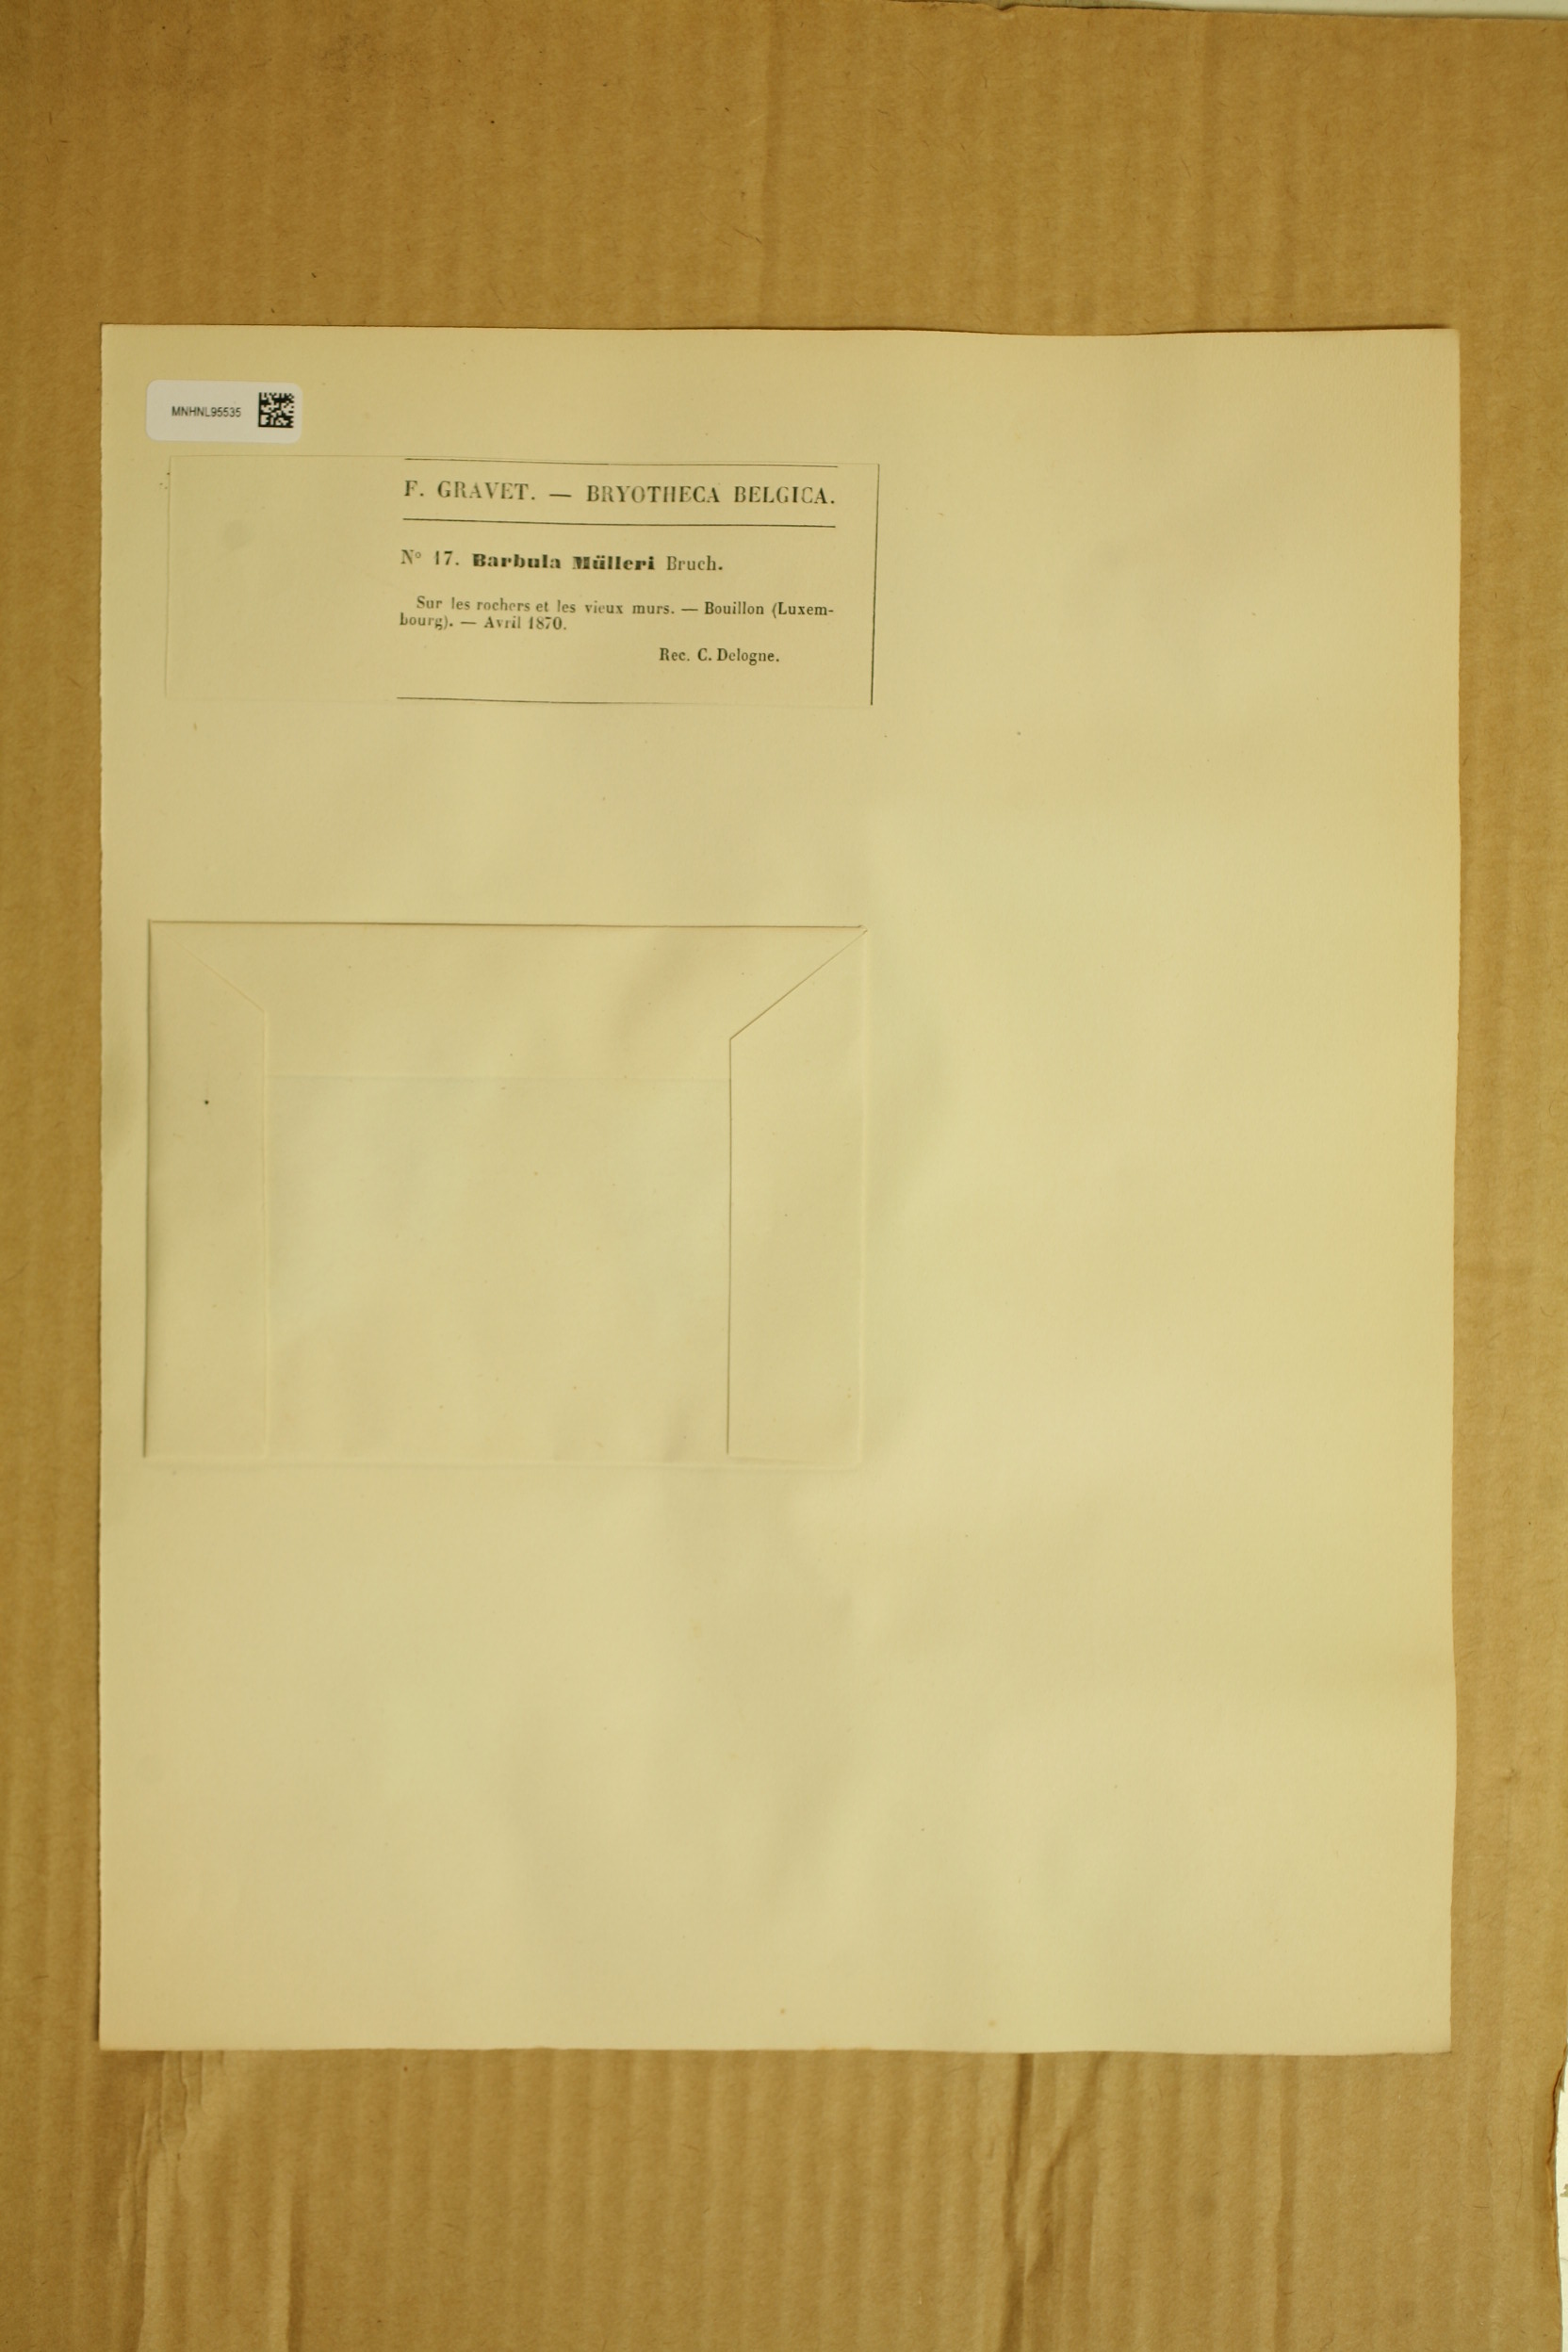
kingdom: Plantae
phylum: Bryophyta
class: Bryopsida
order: Pottiales
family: Pottiaceae
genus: Syntrichia
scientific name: Syntrichia princeps
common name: Brown screw-moss
